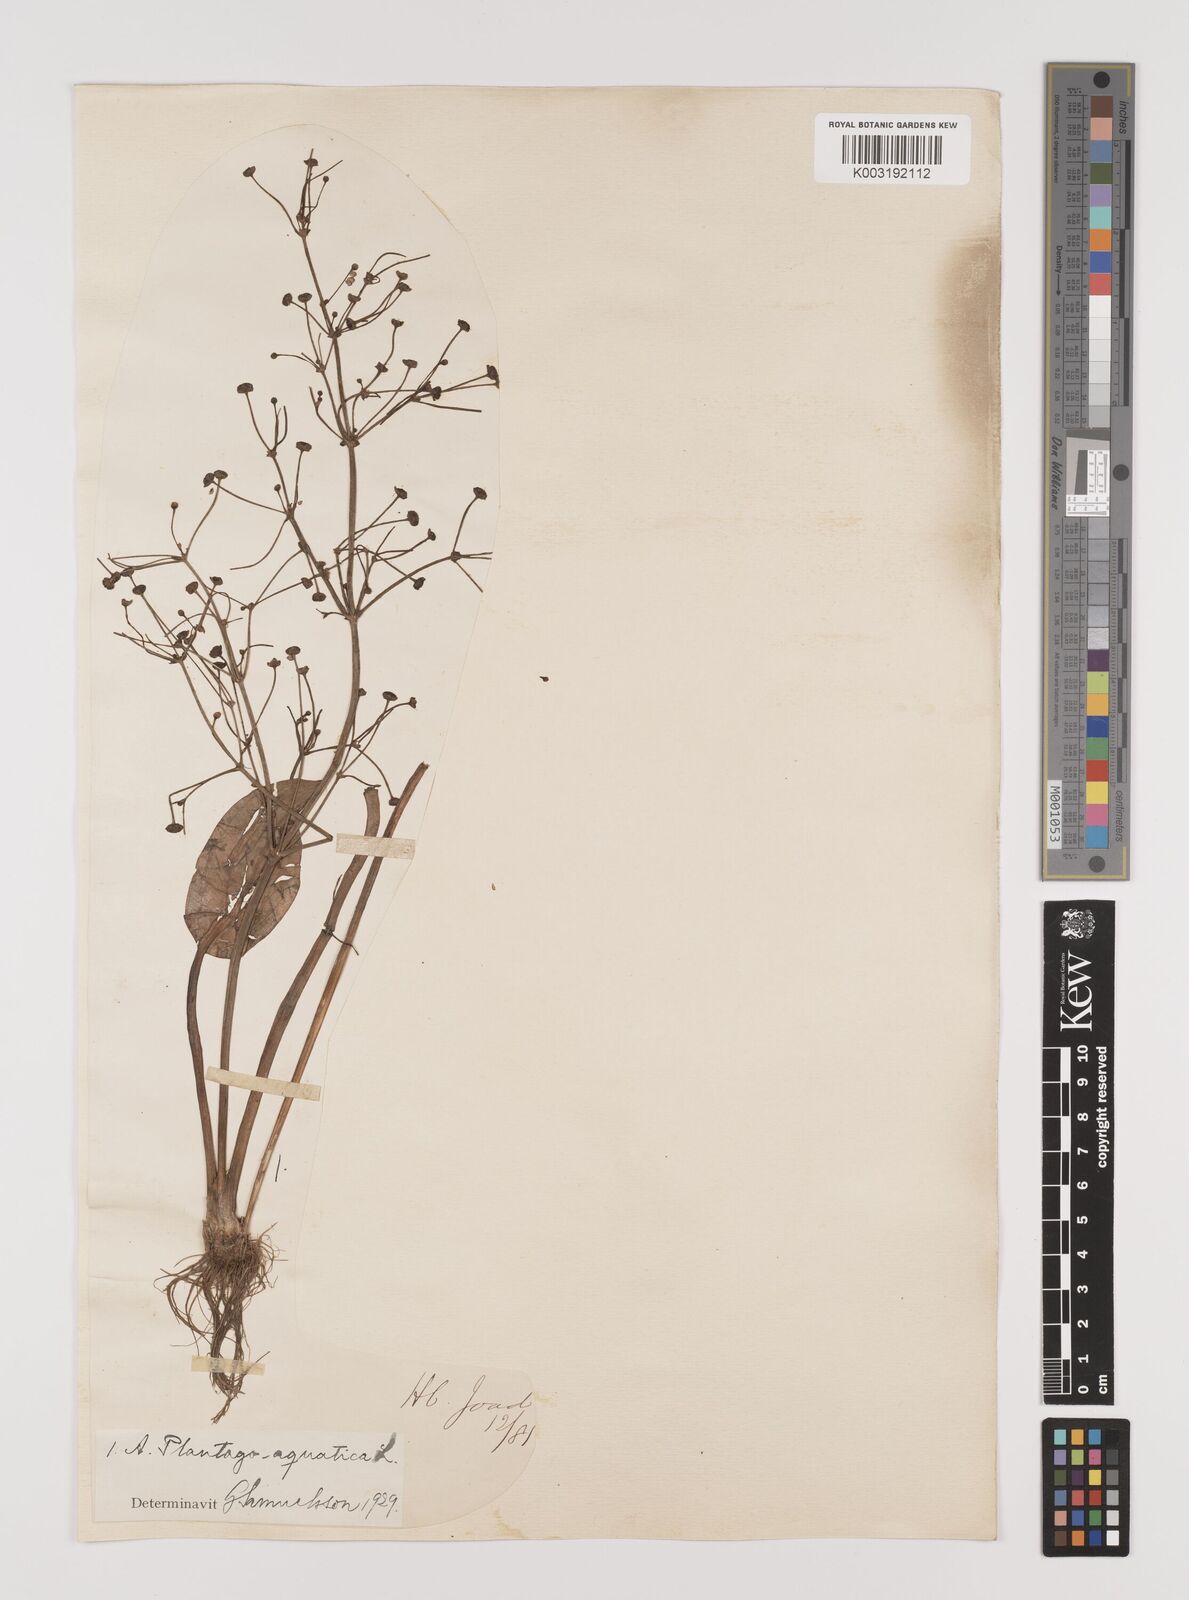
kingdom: Plantae
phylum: Tracheophyta
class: Liliopsida
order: Alismatales
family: Alismataceae
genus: Alisma
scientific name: Alisma plantago-aquatica
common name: Water-plantain
